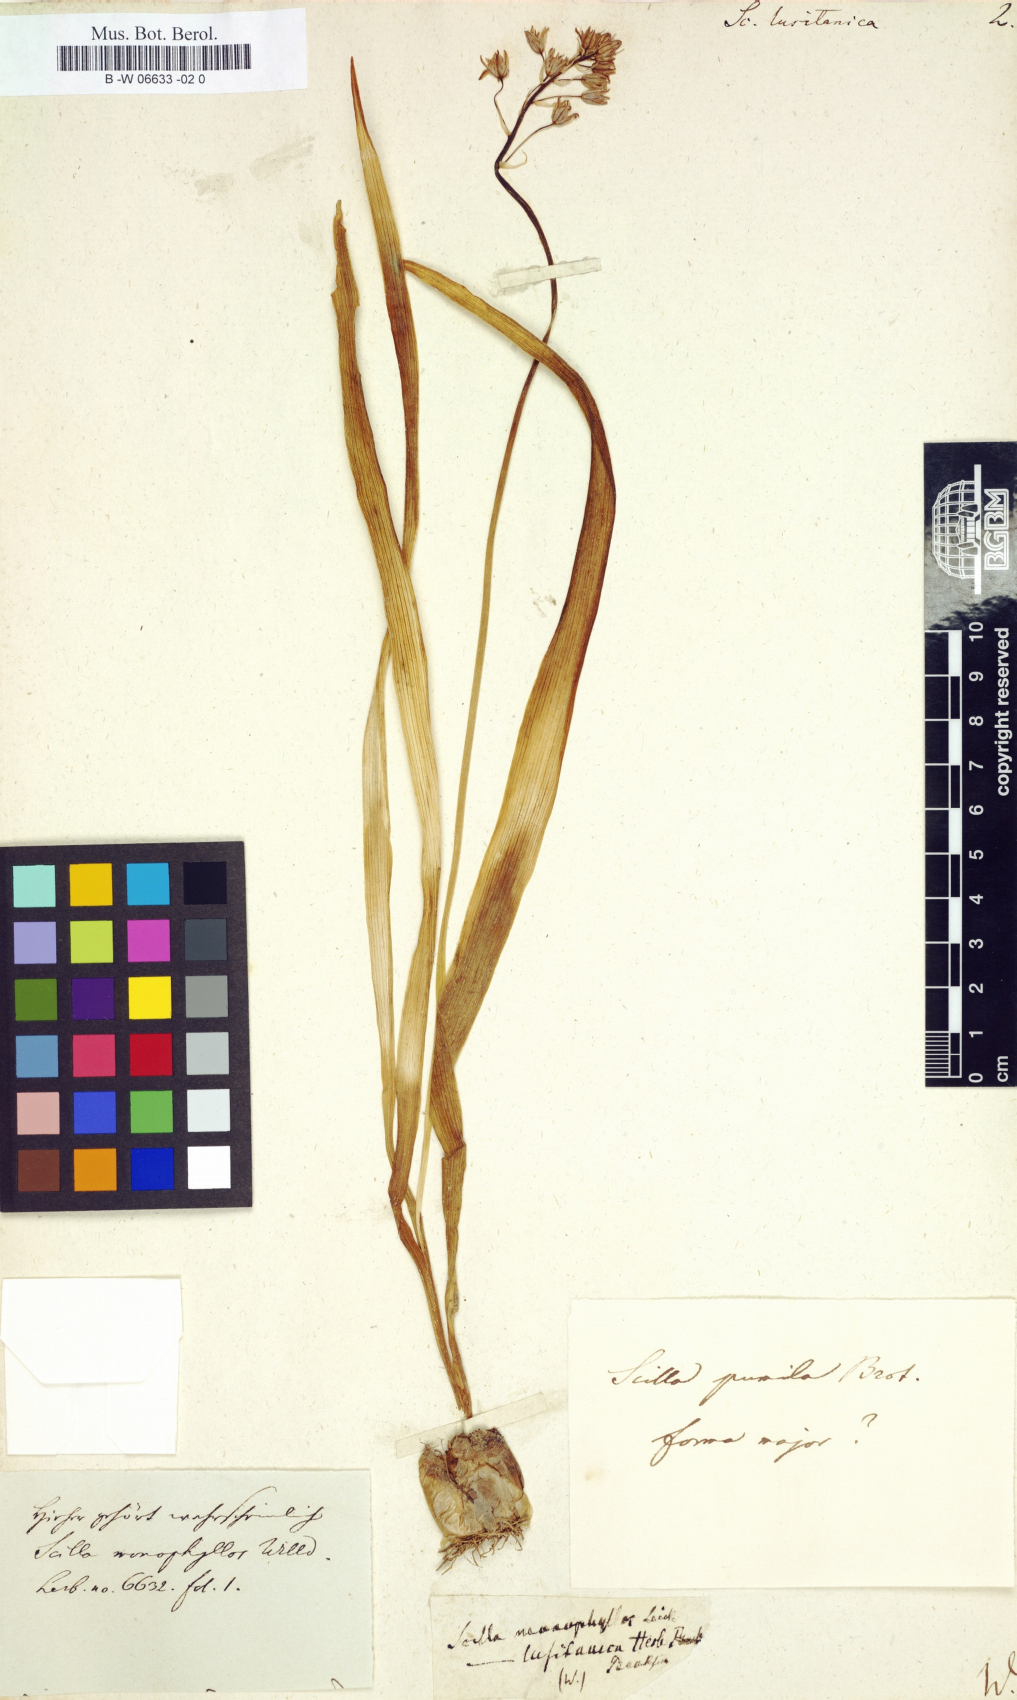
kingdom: Plantae
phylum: Tracheophyta
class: Liliopsida
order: Asparagales
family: Asparagaceae
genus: Scilla
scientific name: Scilla lusitanica
